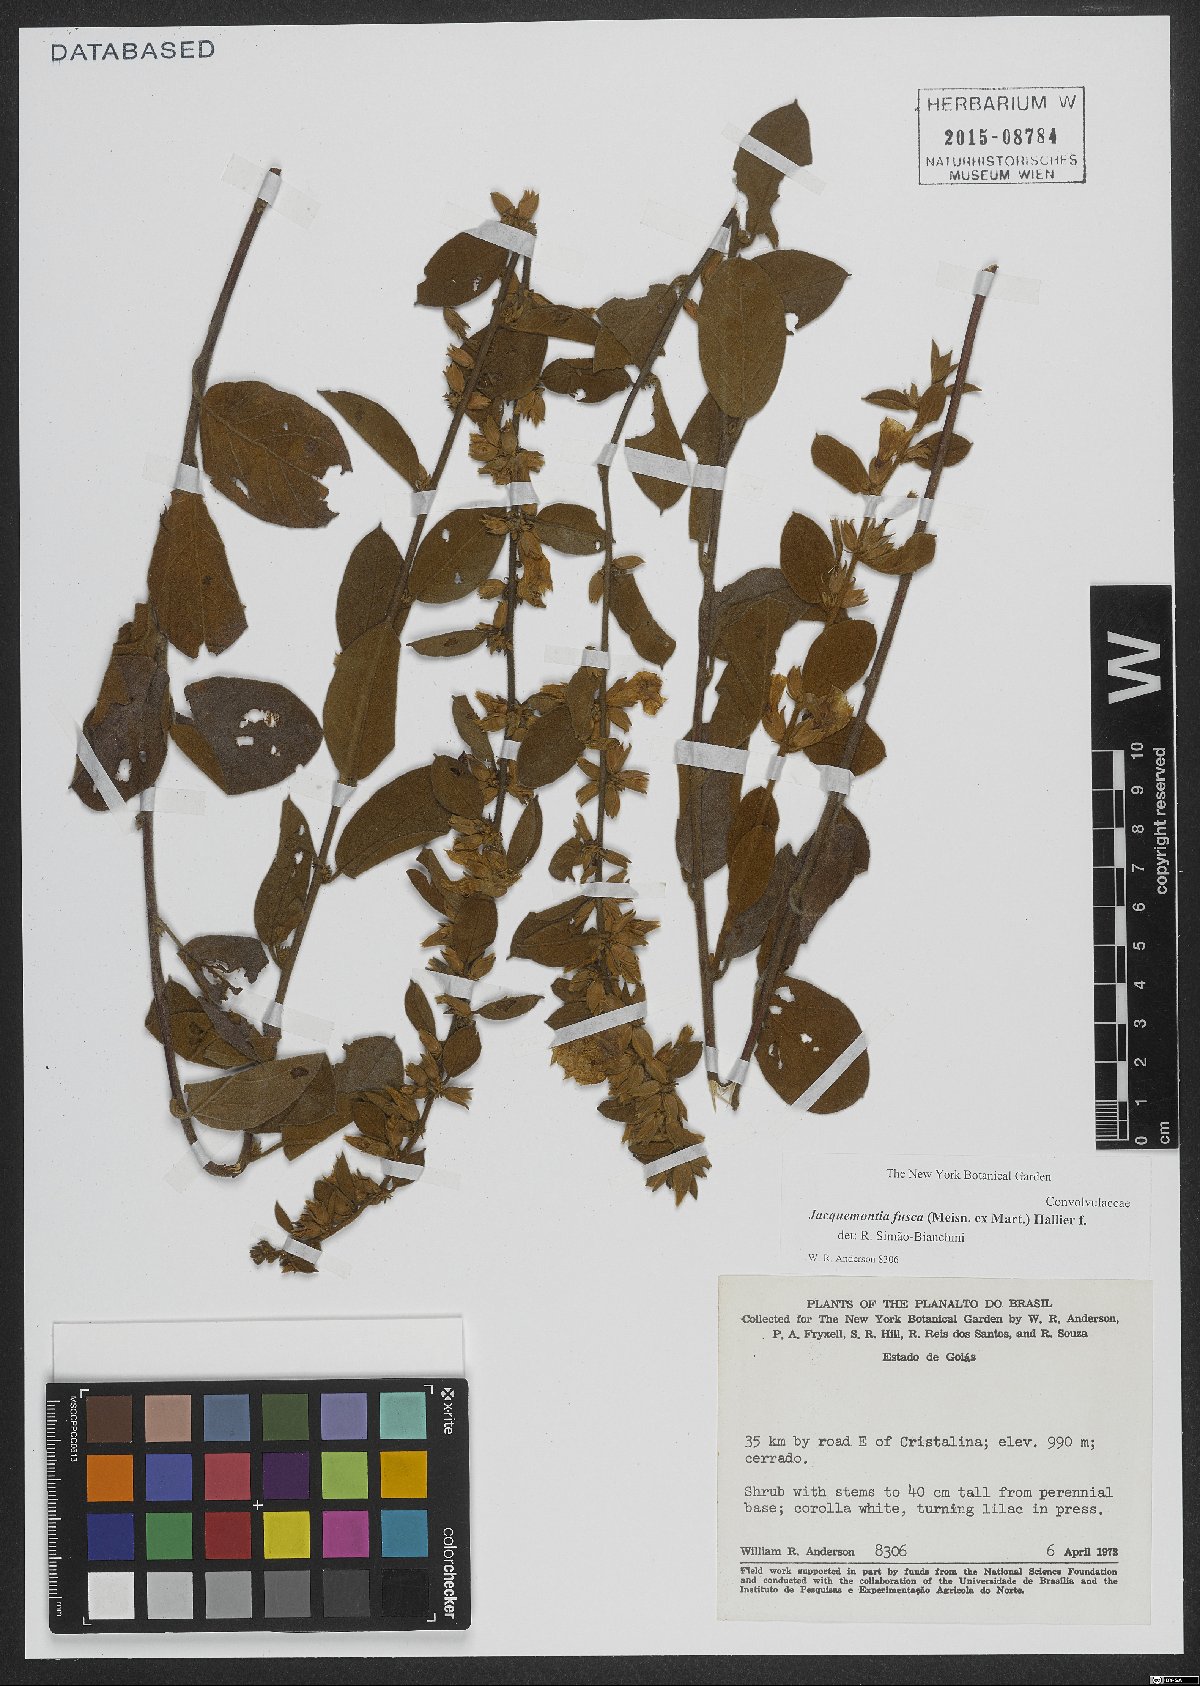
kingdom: Plantae
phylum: Tracheophyta
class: Magnoliopsida
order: Solanales
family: Convolvulaceae
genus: Jacquemontia
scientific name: Jacquemontia fusca
